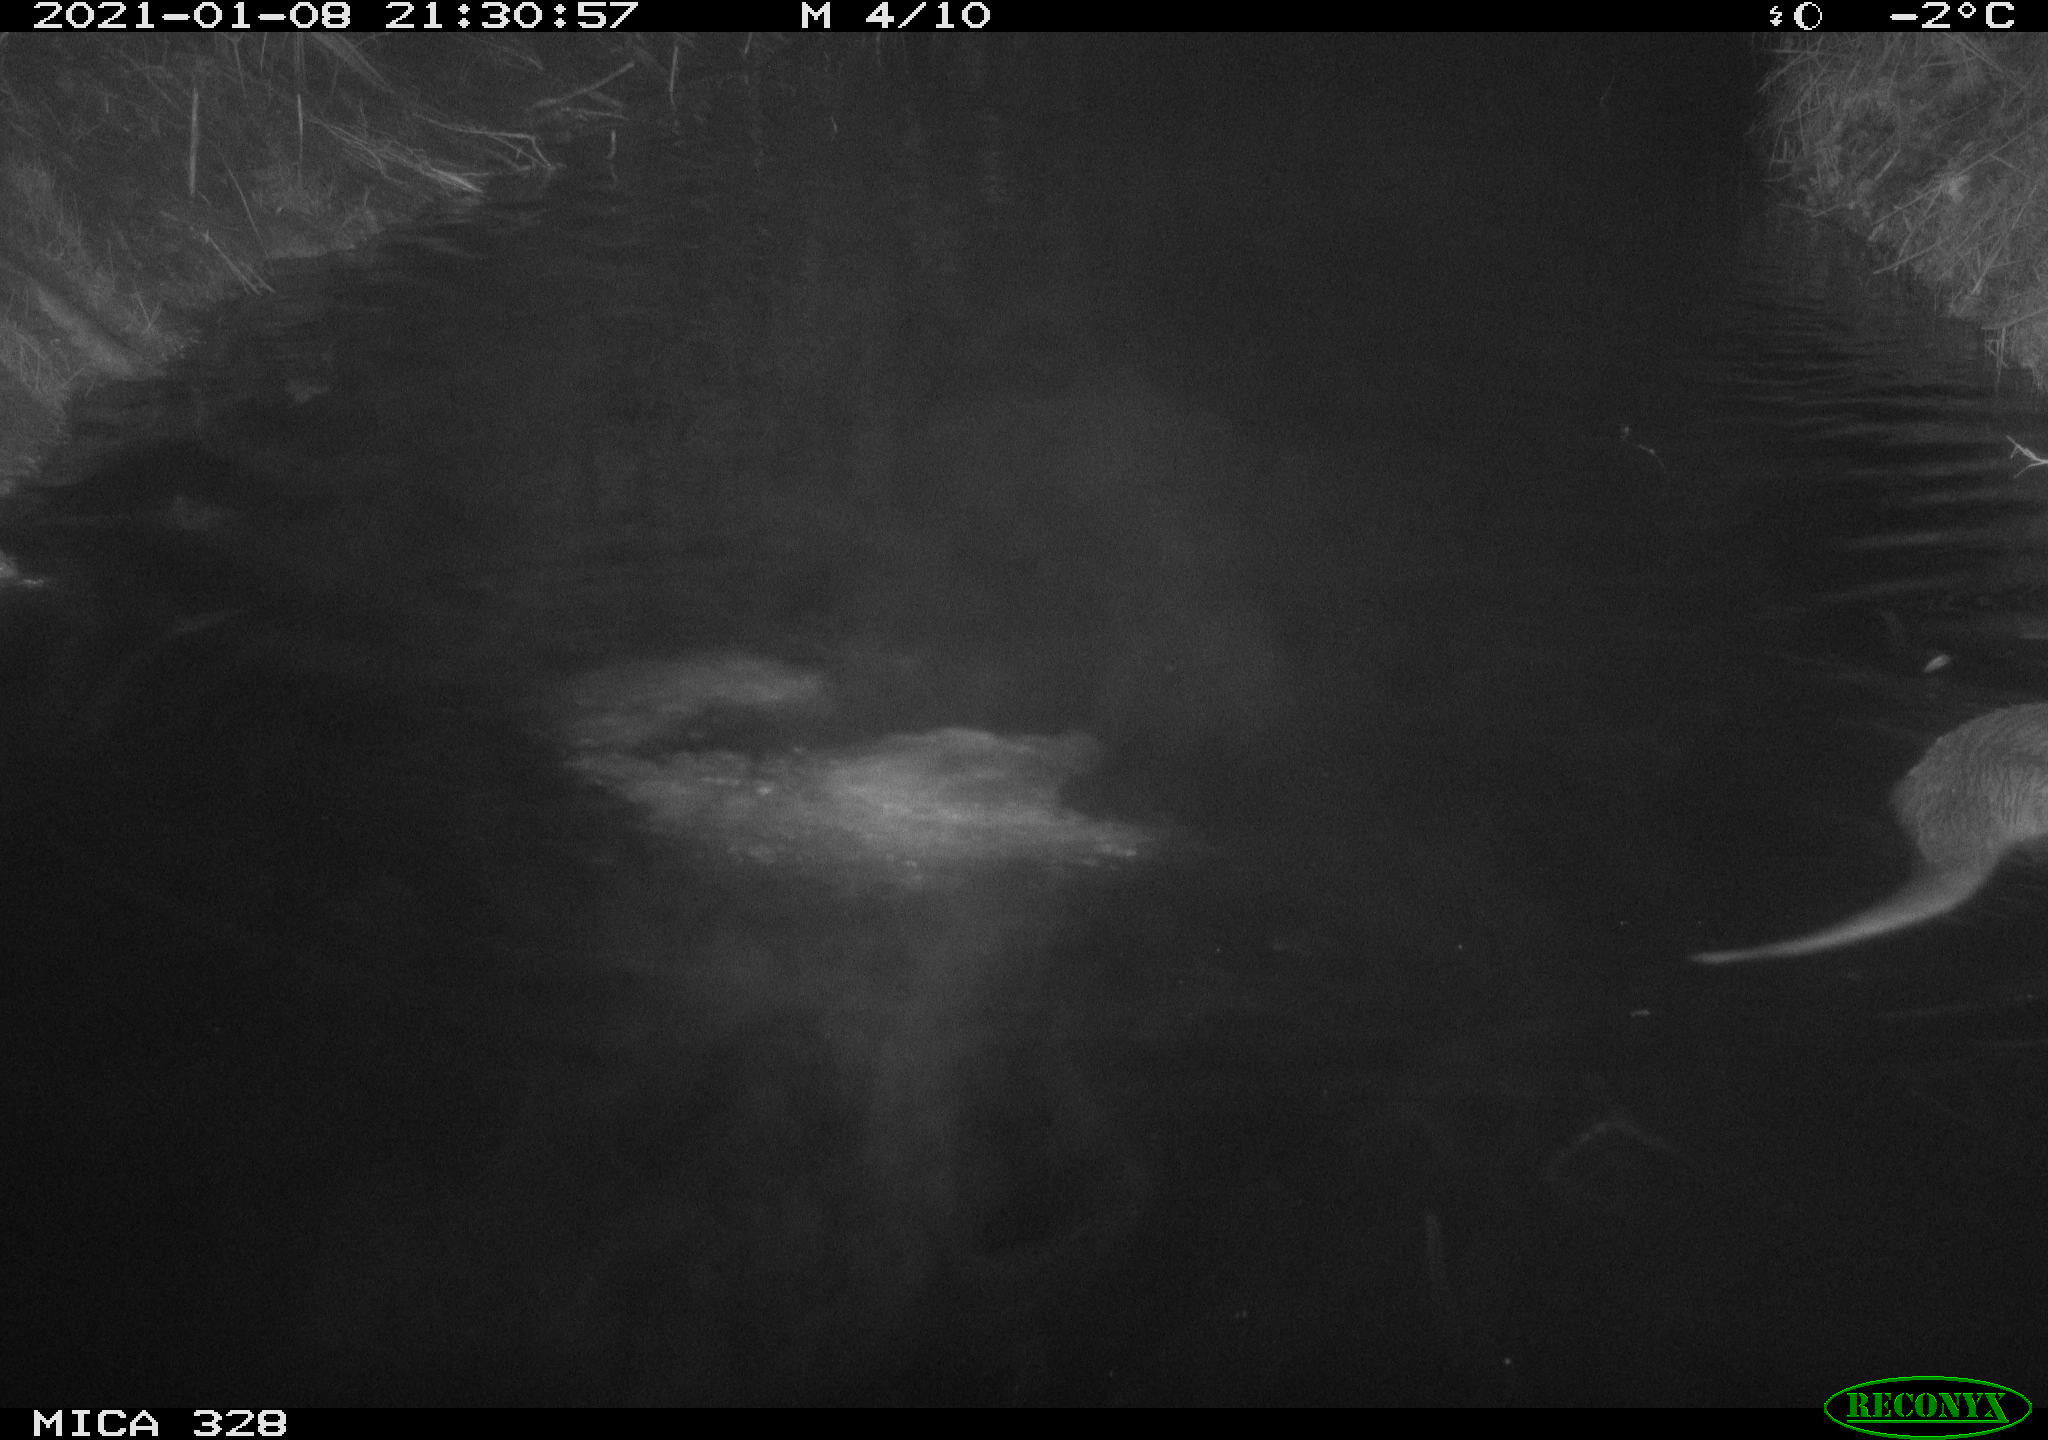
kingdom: Animalia
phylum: Chordata
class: Mammalia
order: Carnivora
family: Mustelidae
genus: Lutra
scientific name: Lutra lutra
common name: European otter
